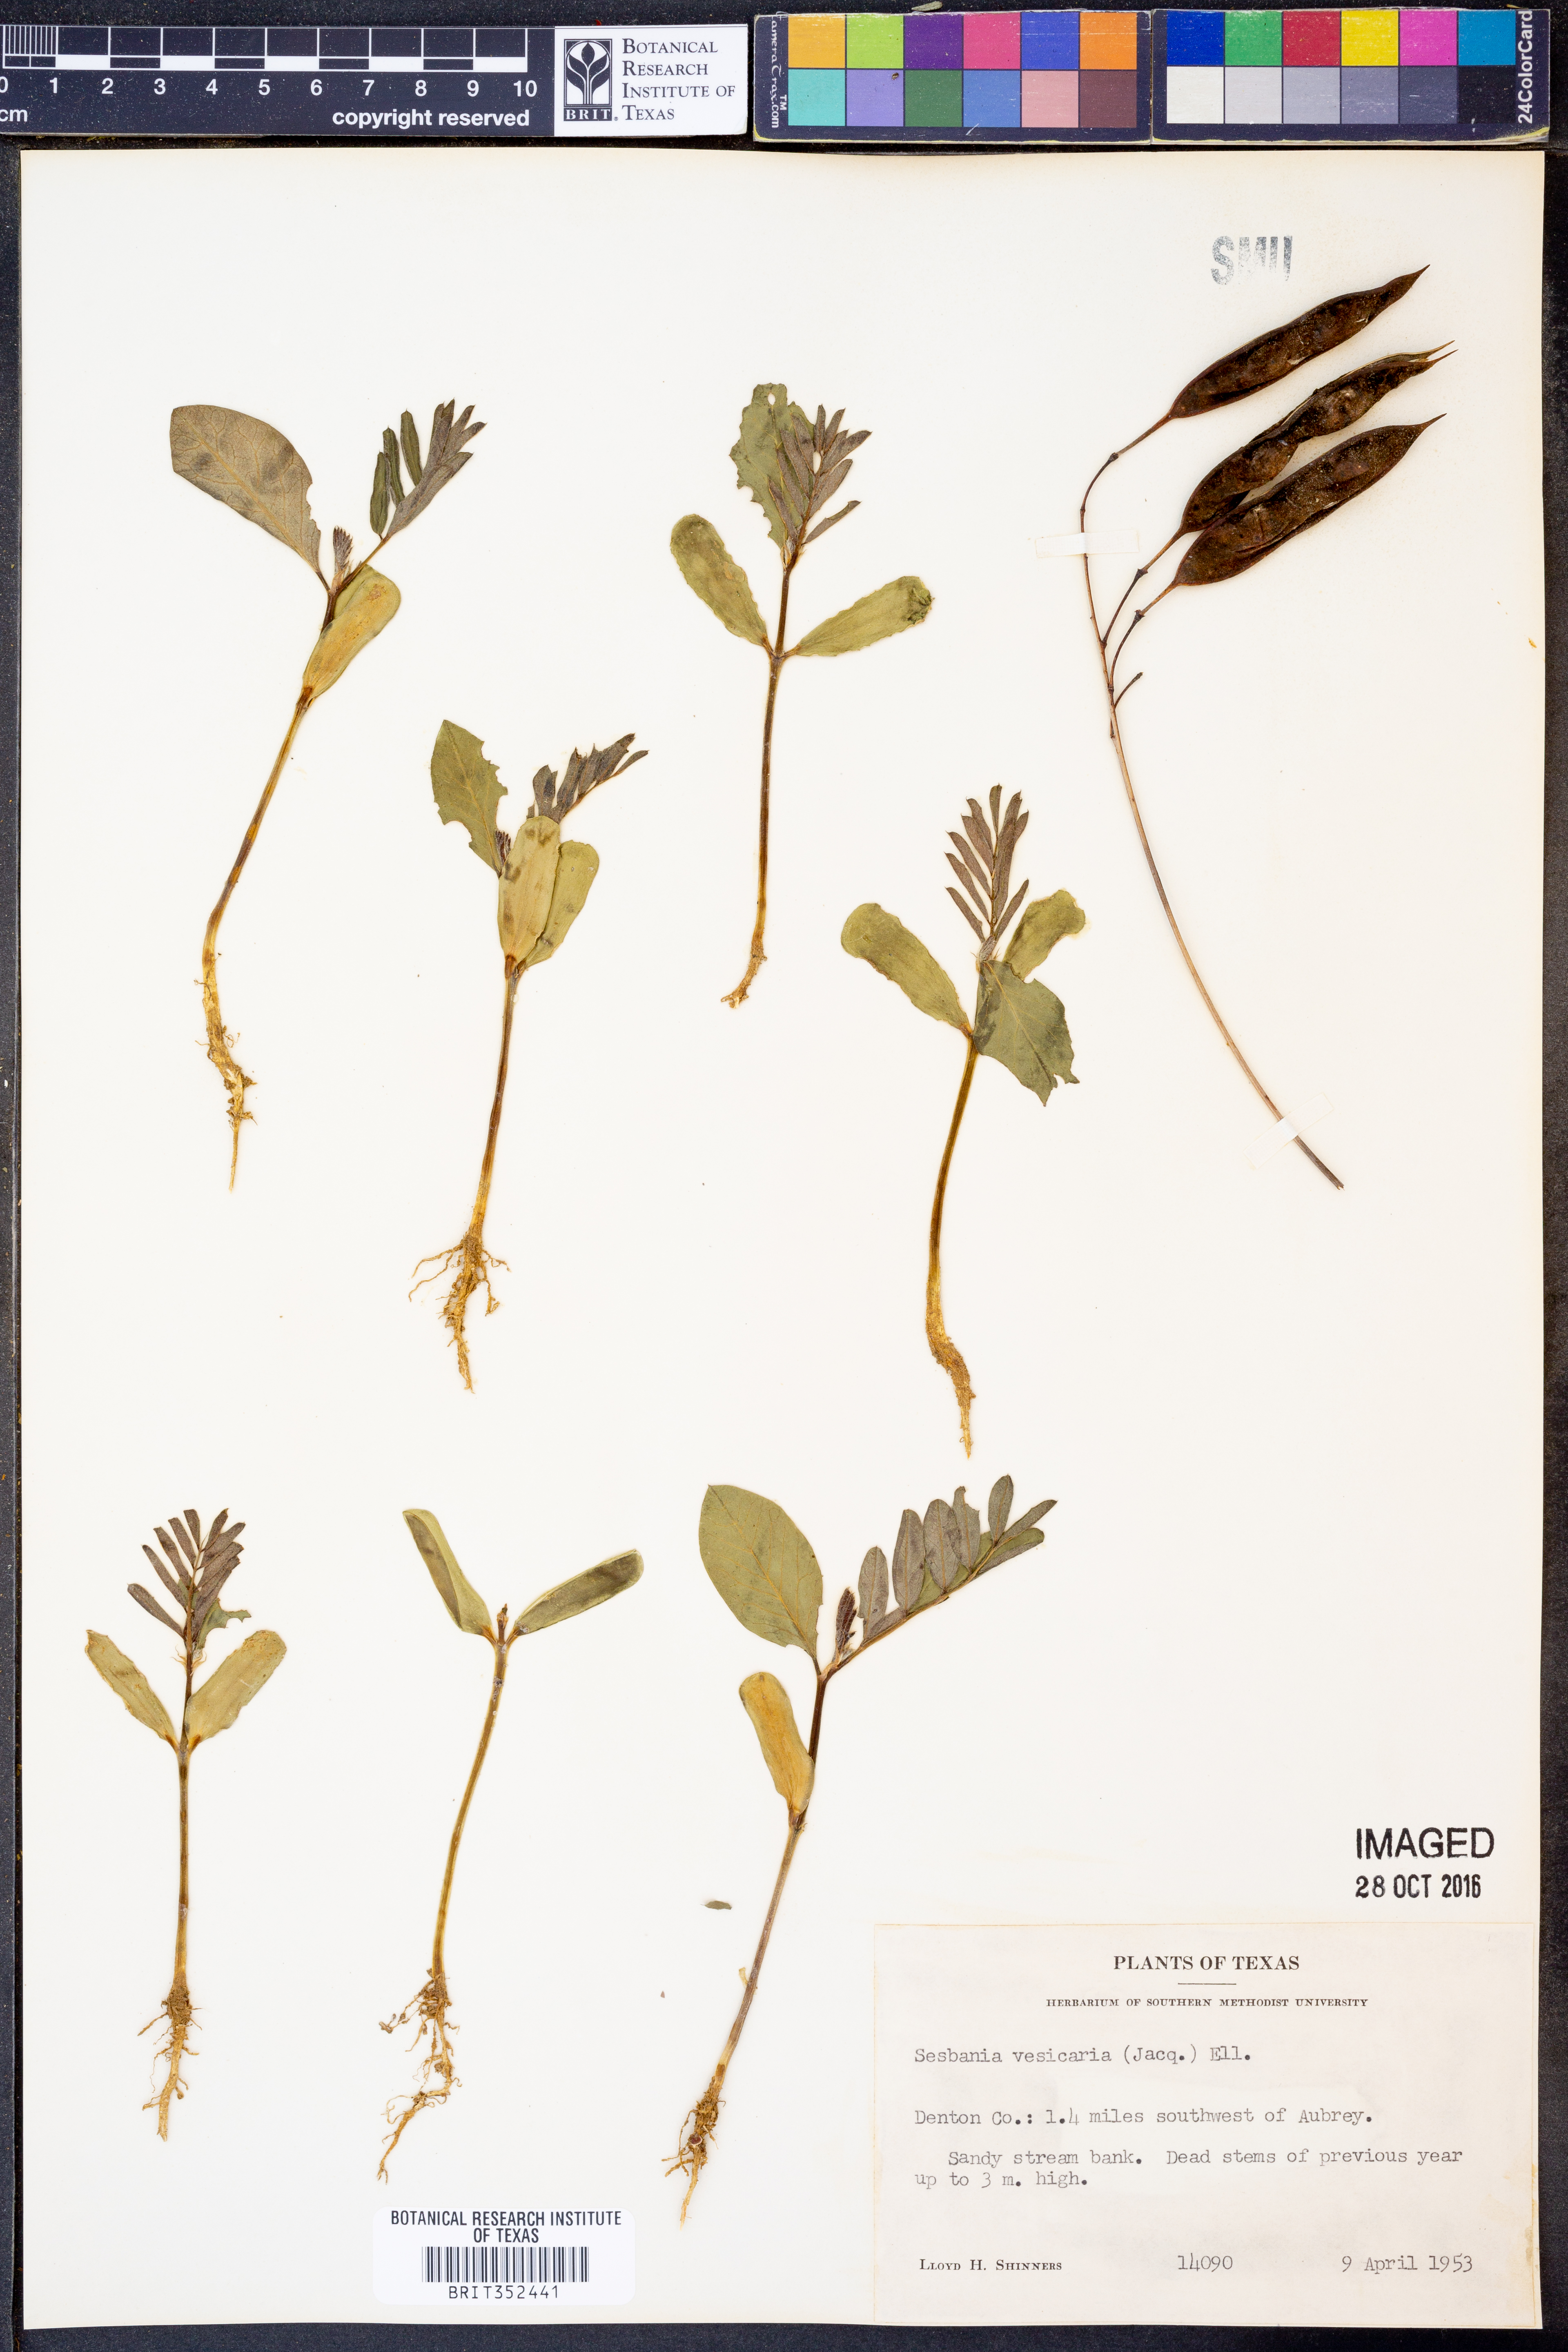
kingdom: Plantae
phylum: Tracheophyta
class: Magnoliopsida
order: Fabales
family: Fabaceae
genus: Sesbania
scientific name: Sesbania vesicaria
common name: Bagpod
